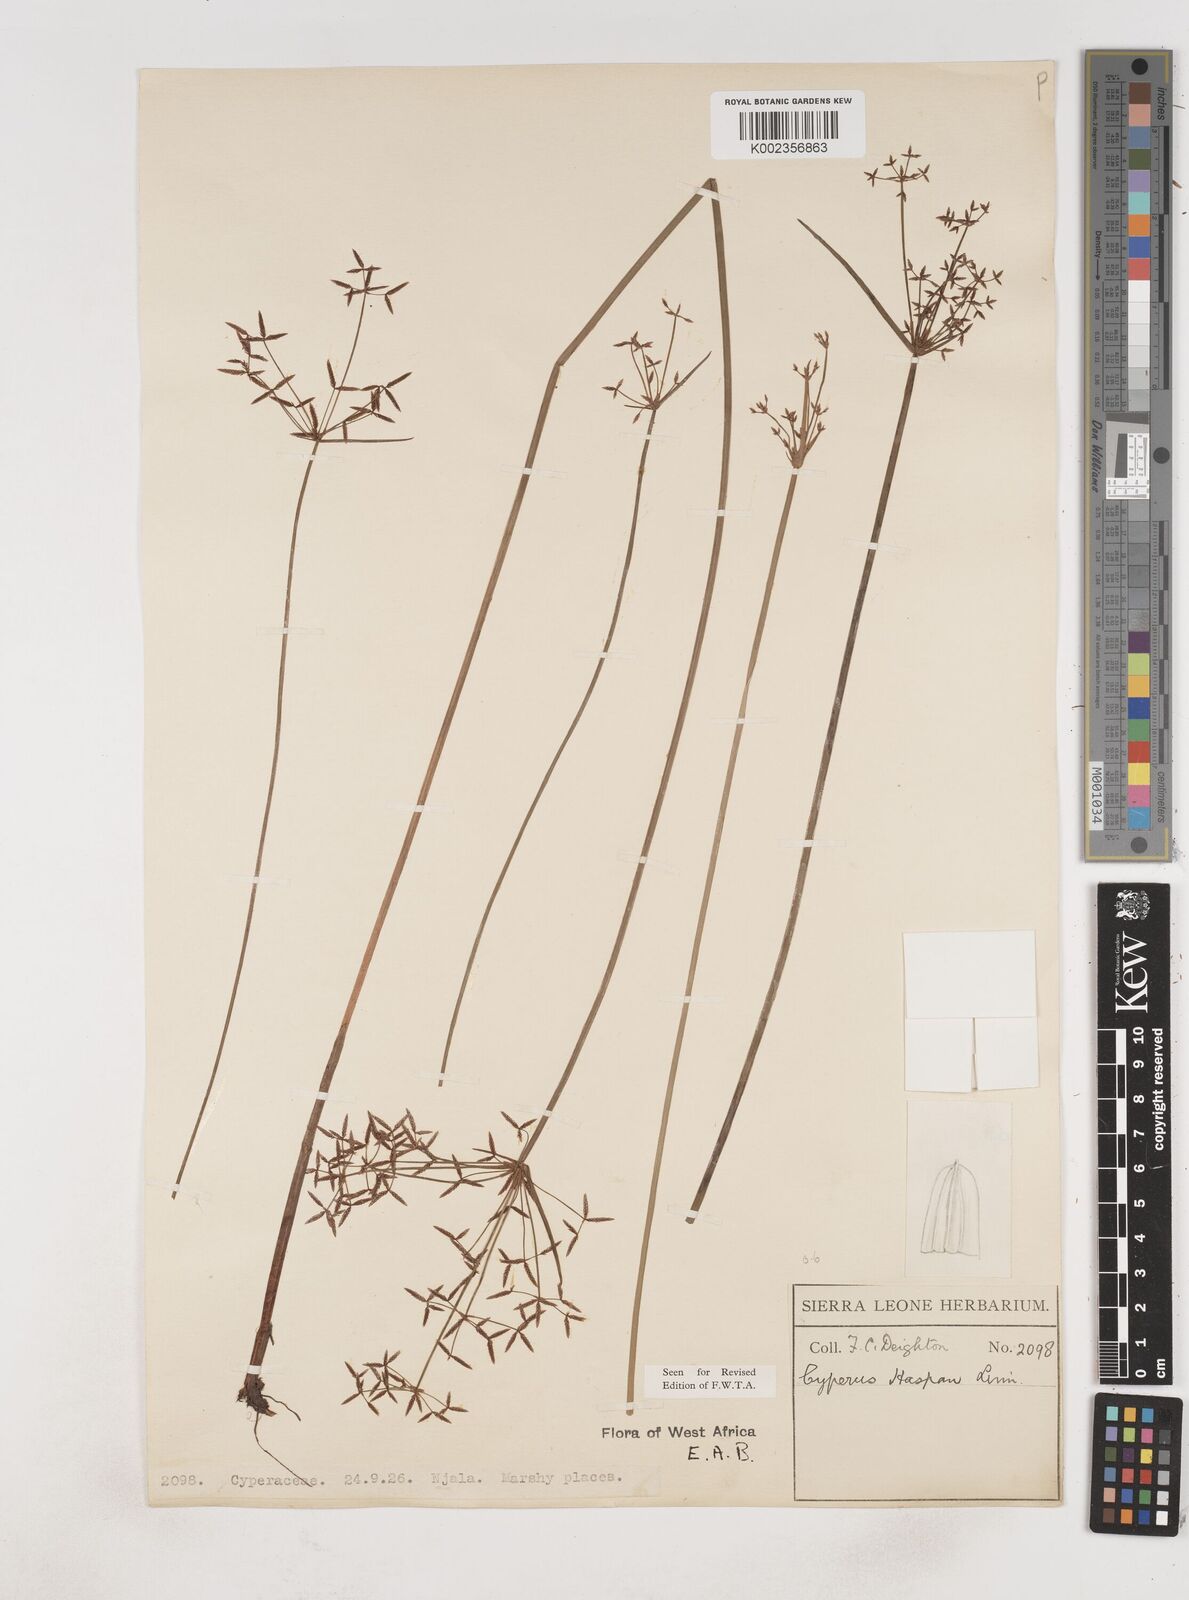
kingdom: Plantae
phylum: Tracheophyta
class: Liliopsida
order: Poales
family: Cyperaceae
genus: Cyperus
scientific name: Cyperus haspan
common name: Haspan flatsedge
